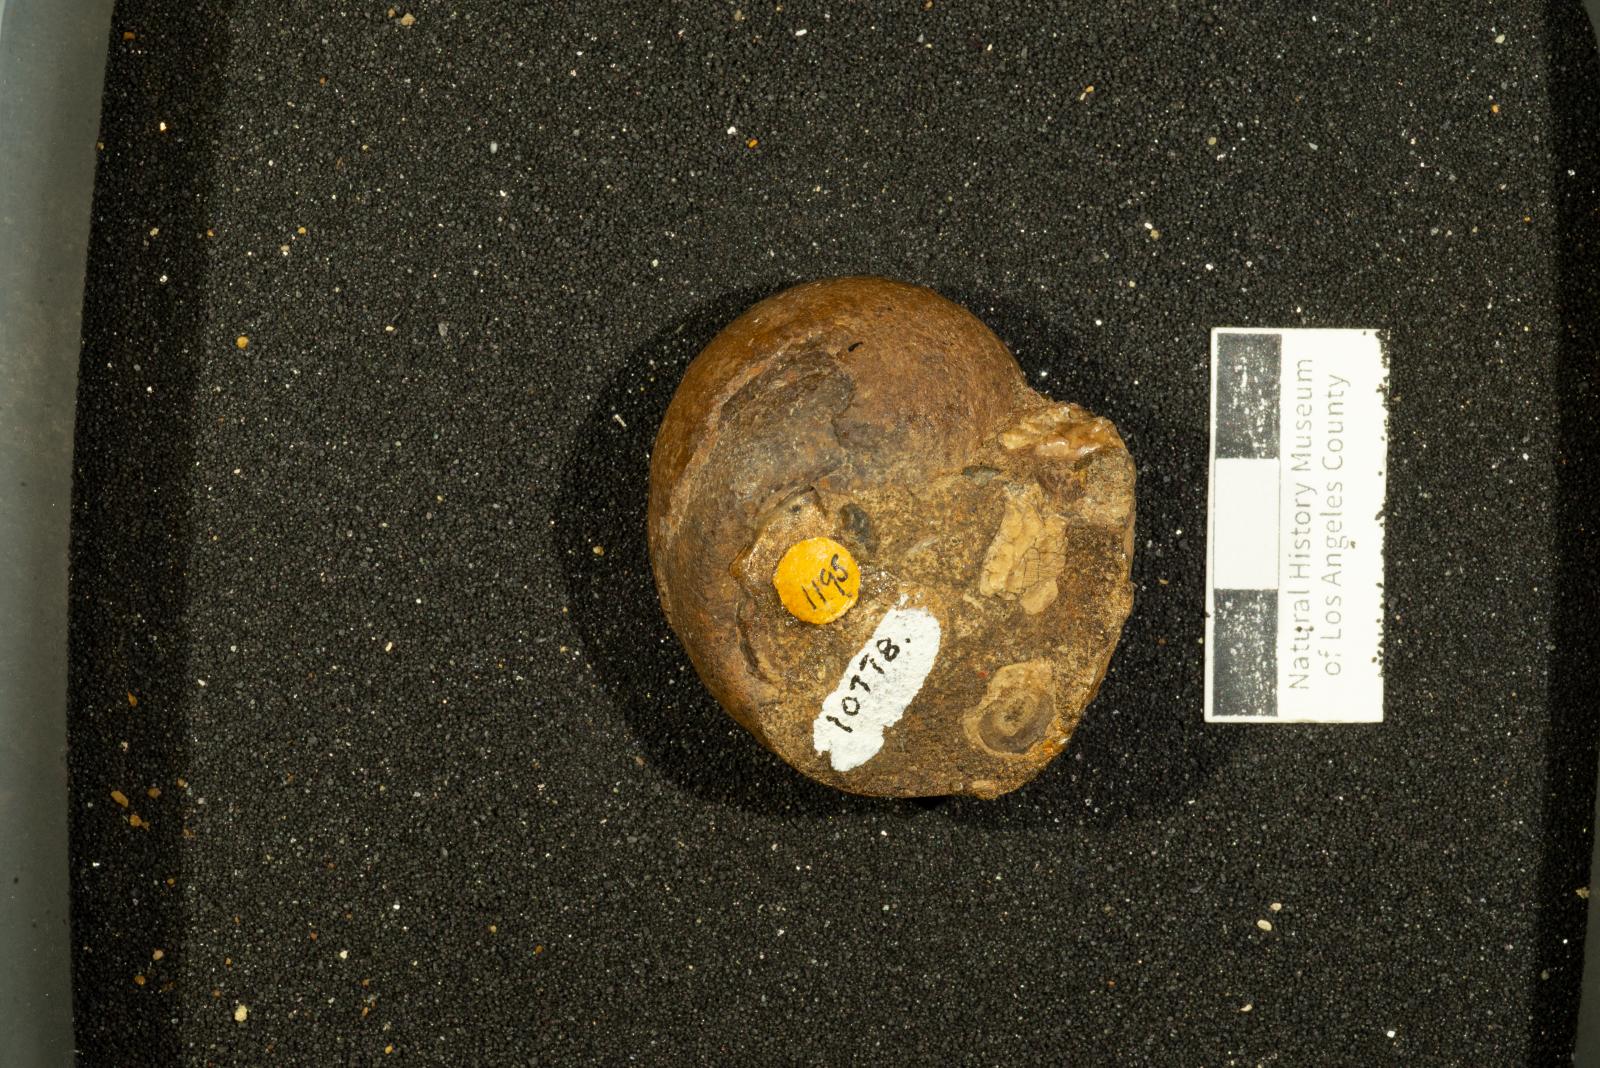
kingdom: Animalia
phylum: Mollusca
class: Gastropoda
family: Gyrodidae
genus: Gyrodes
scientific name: Gyrodes dowelli
